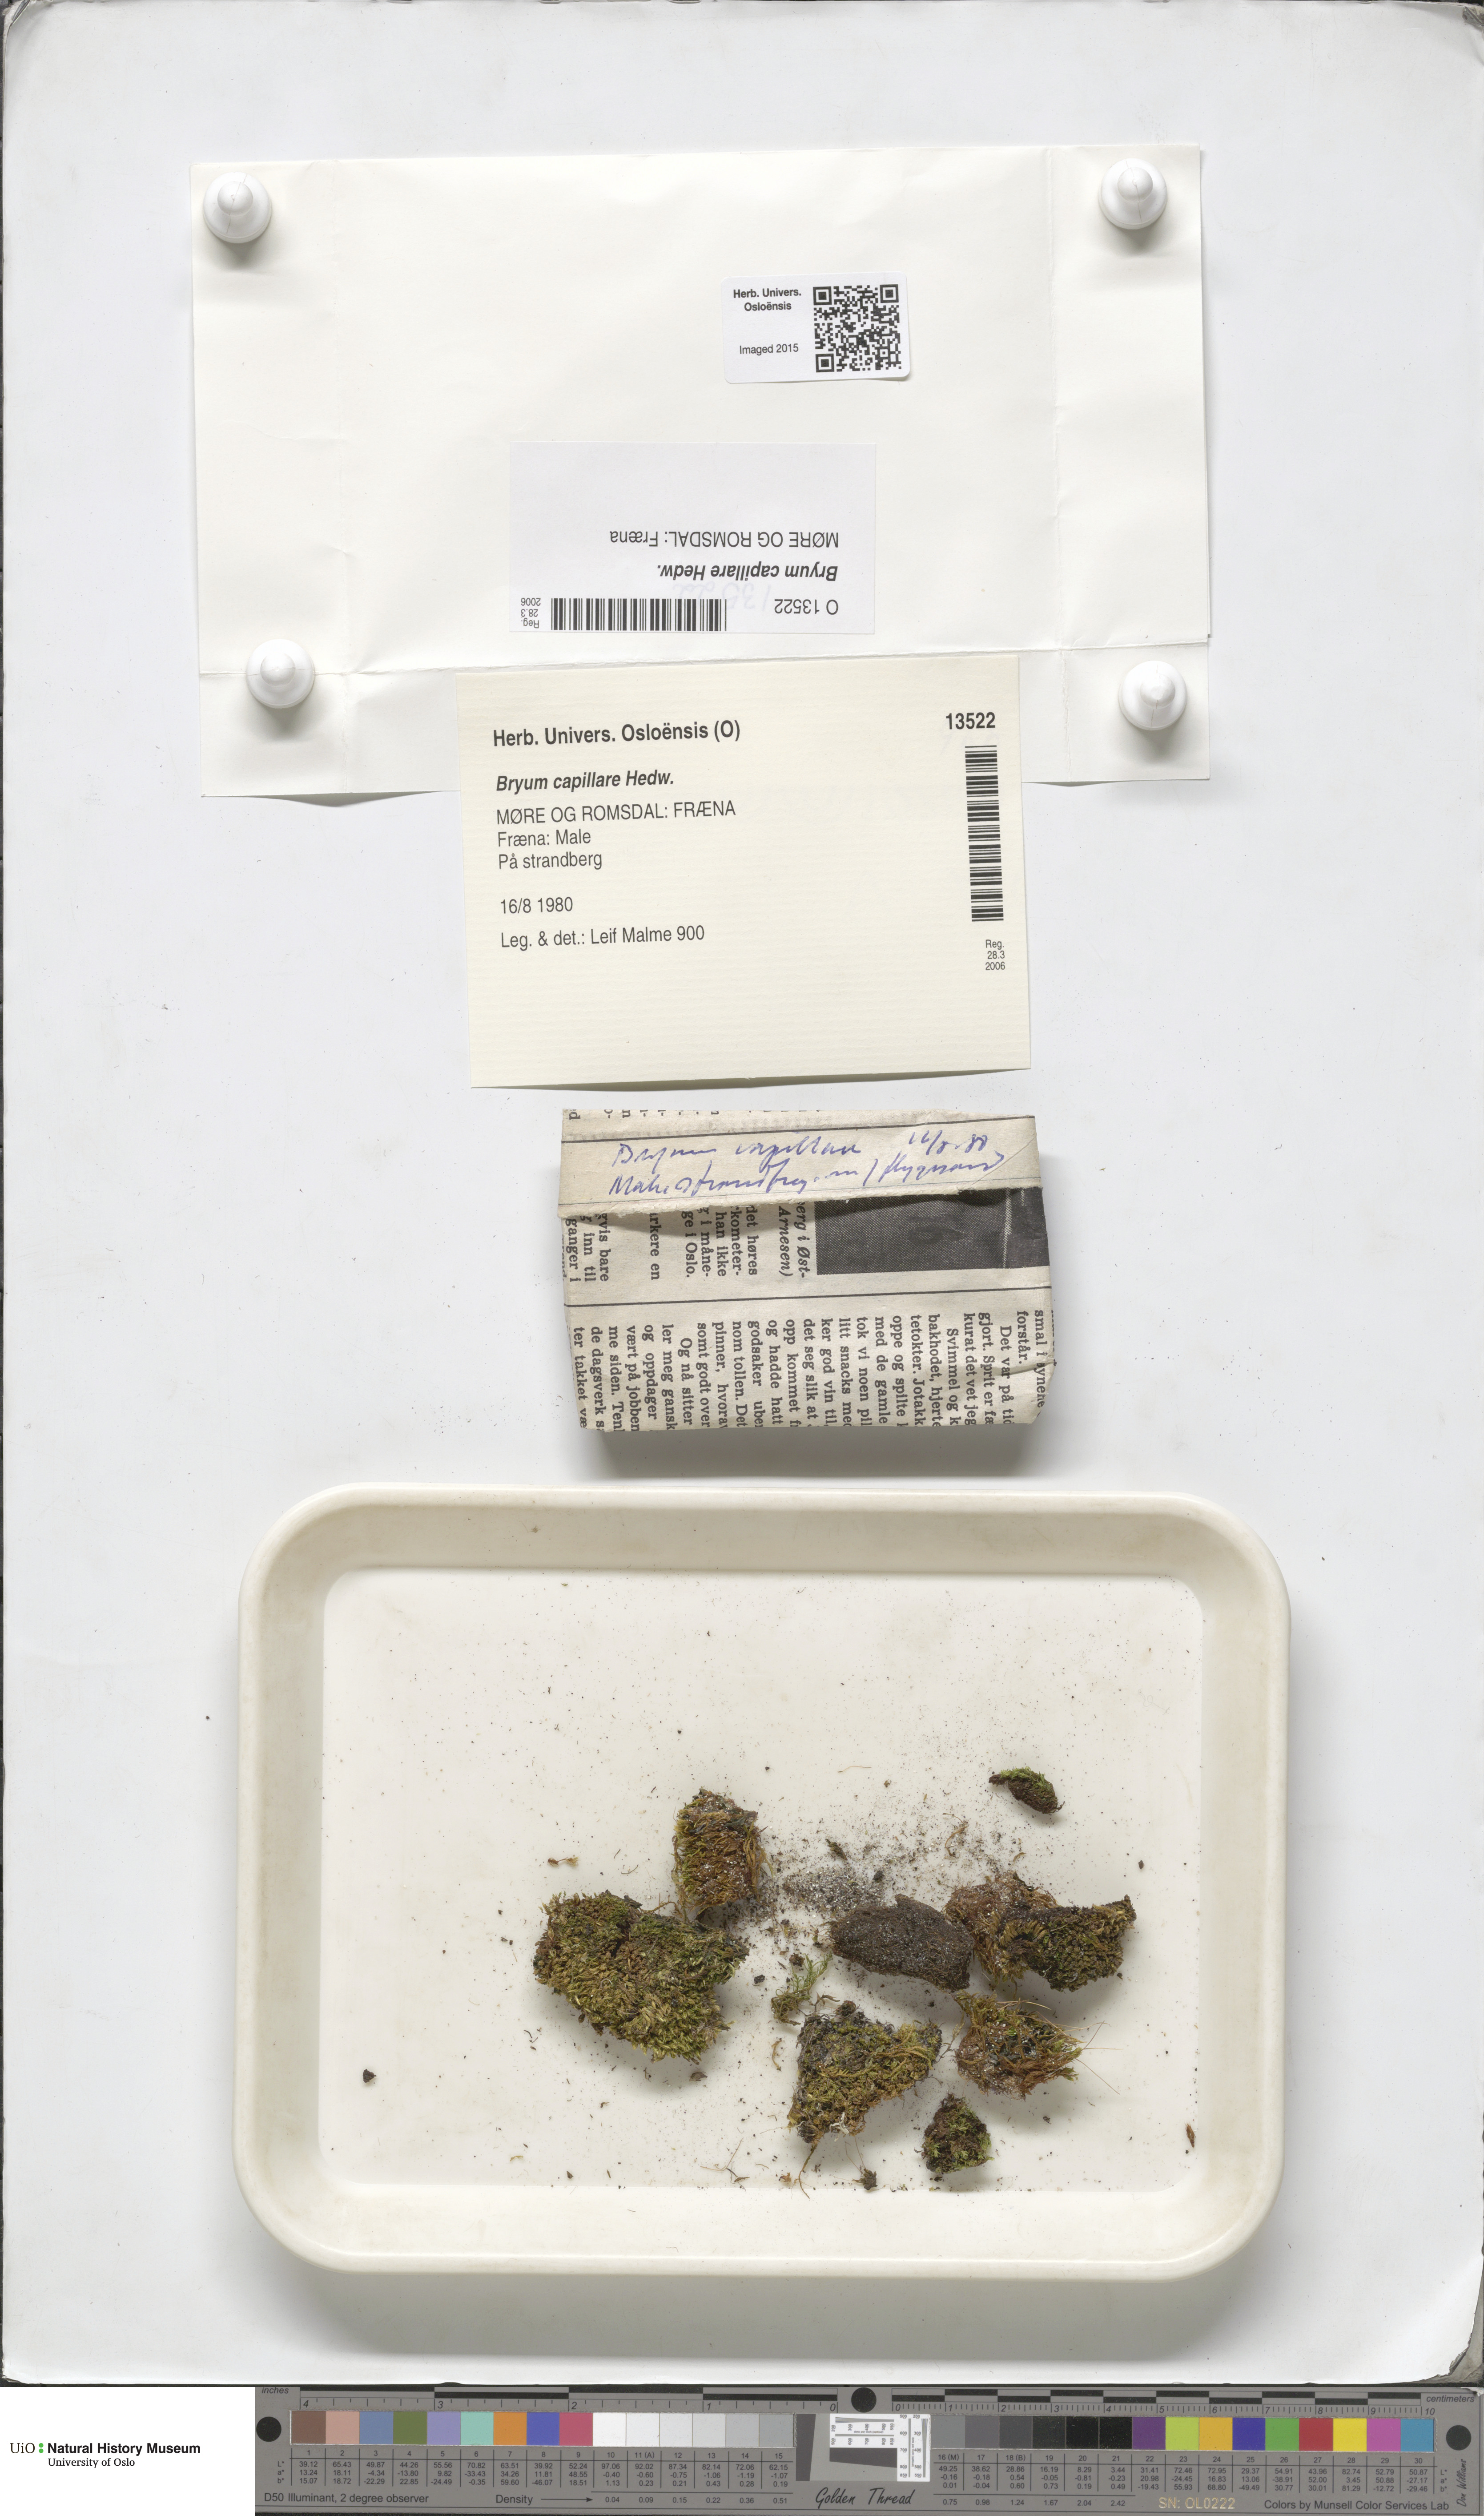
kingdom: Plantae
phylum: Bryophyta
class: Bryopsida
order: Bryales
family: Bryaceae
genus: Rosulabryum
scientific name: Rosulabryum capillare
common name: Capillary thread-moss
